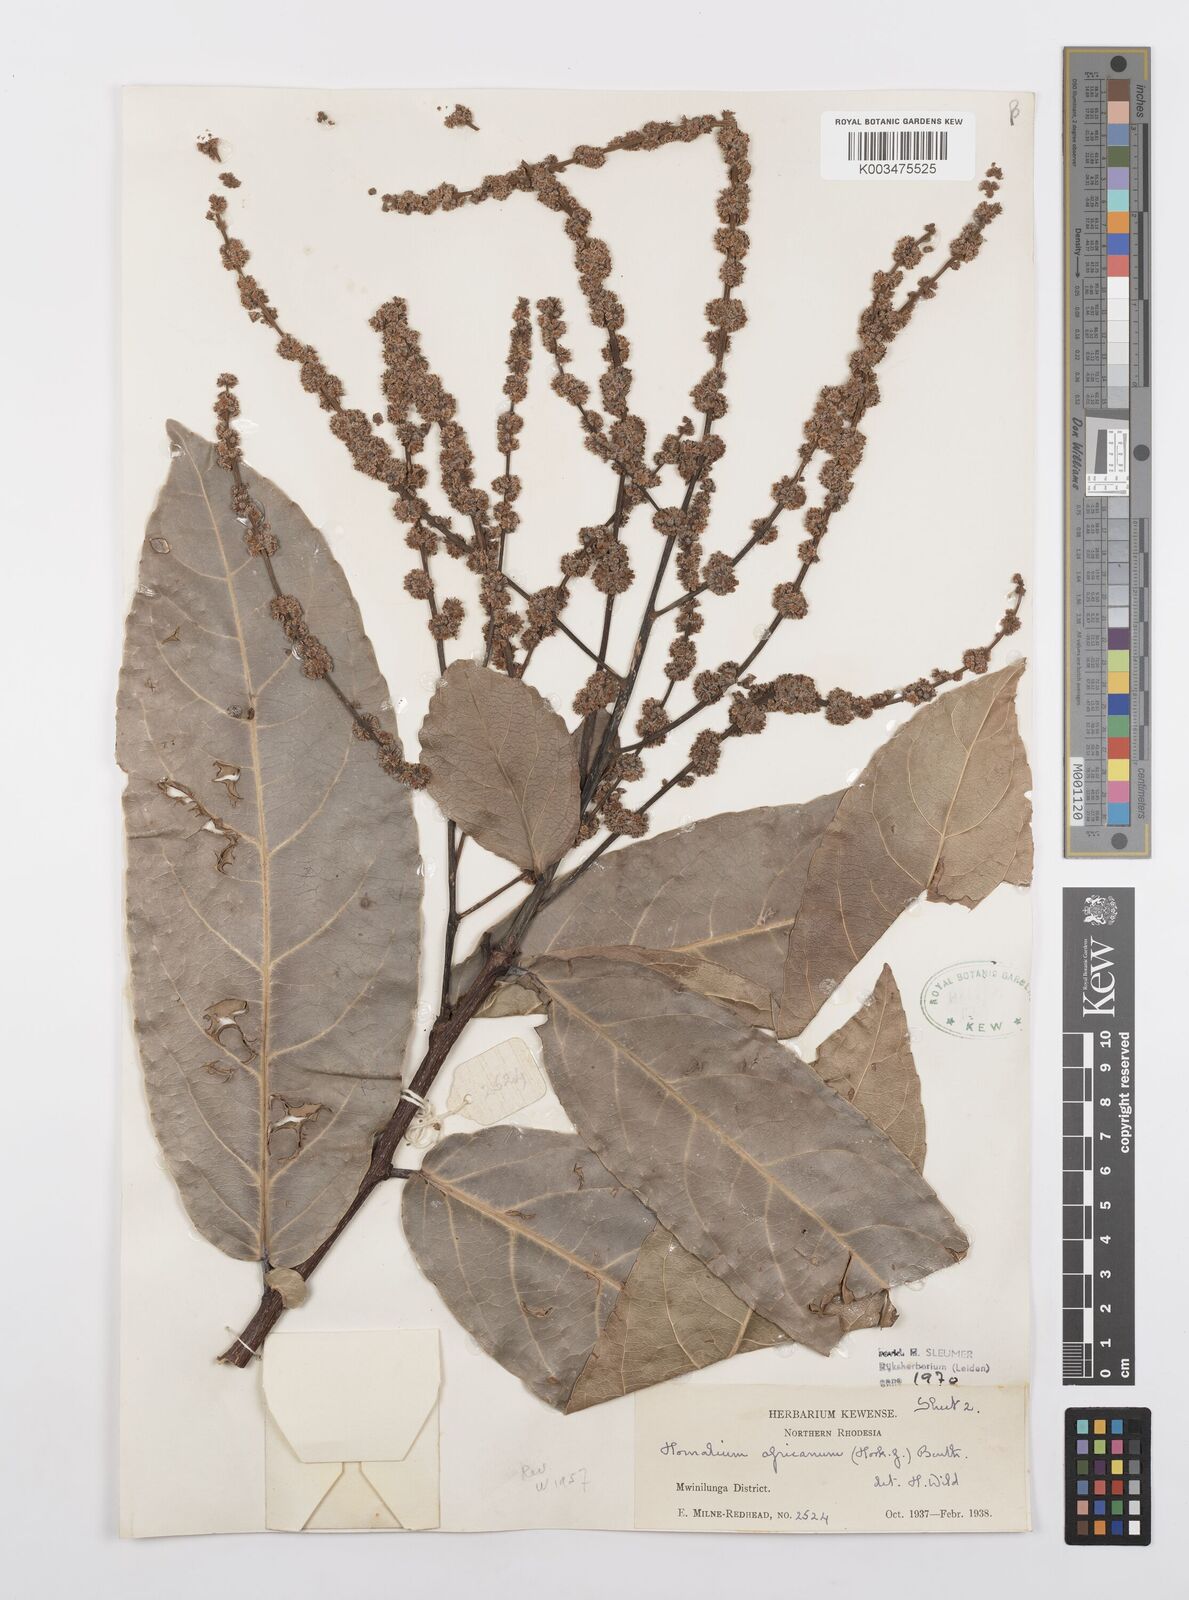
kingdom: Plantae
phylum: Tracheophyta
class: Magnoliopsida
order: Malpighiales
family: Salicaceae
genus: Homalium
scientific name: Homalium africanum
